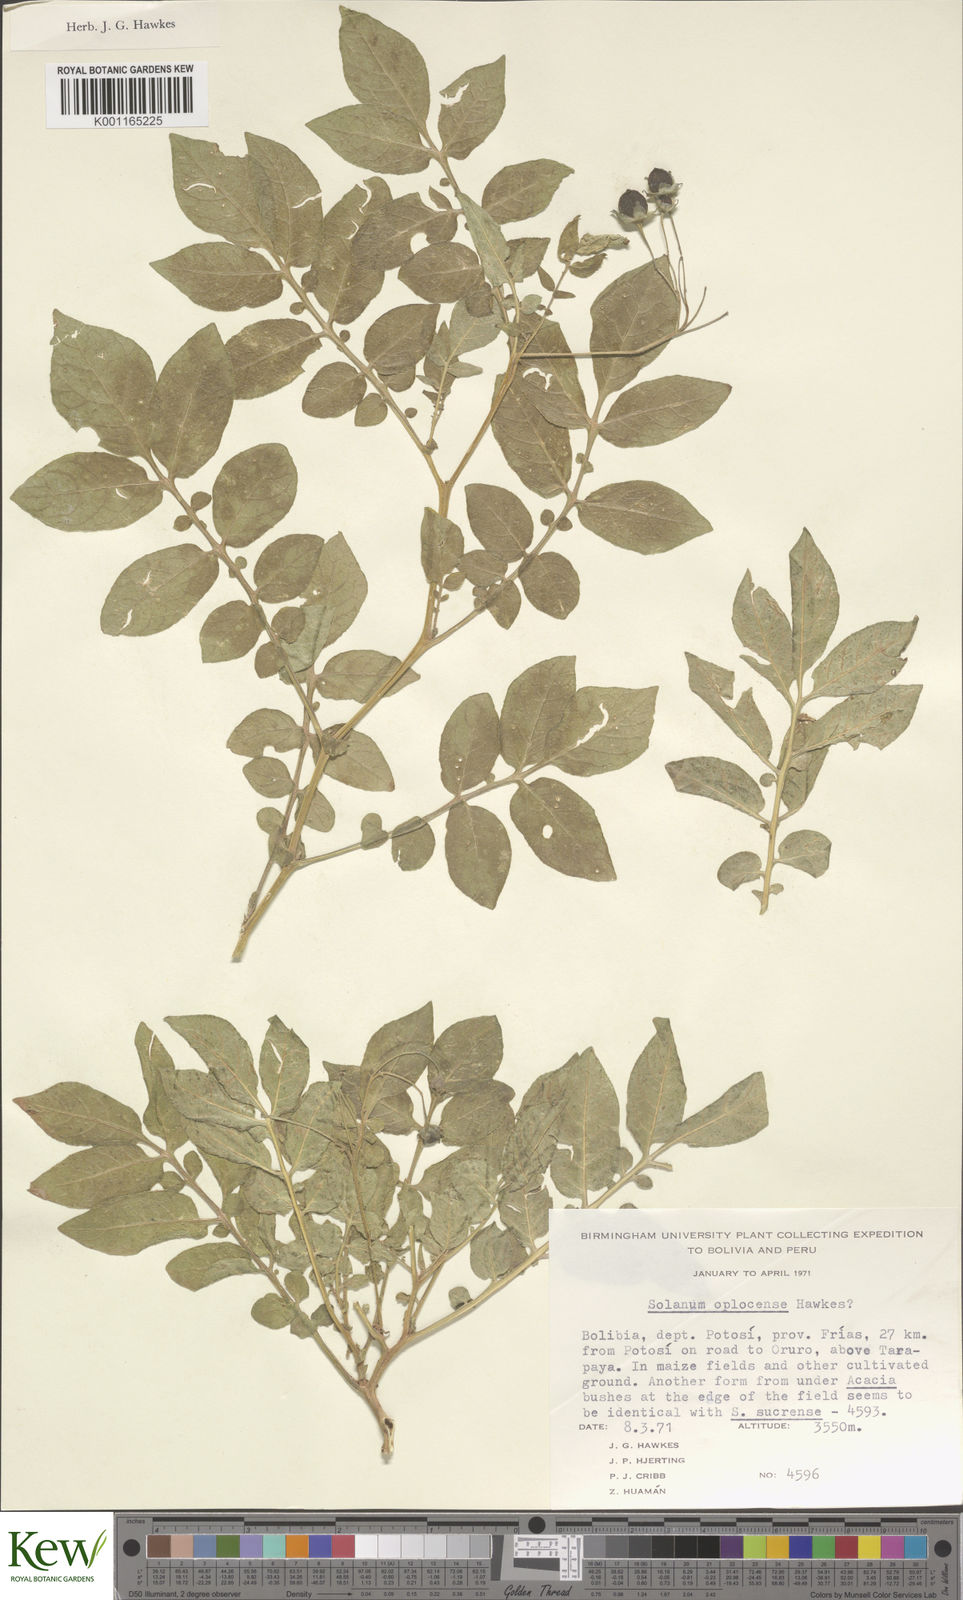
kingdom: Plantae
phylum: Tracheophyta
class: Magnoliopsida
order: Solanales
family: Solanaceae
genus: Solanum
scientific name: Solanum brevicaule
